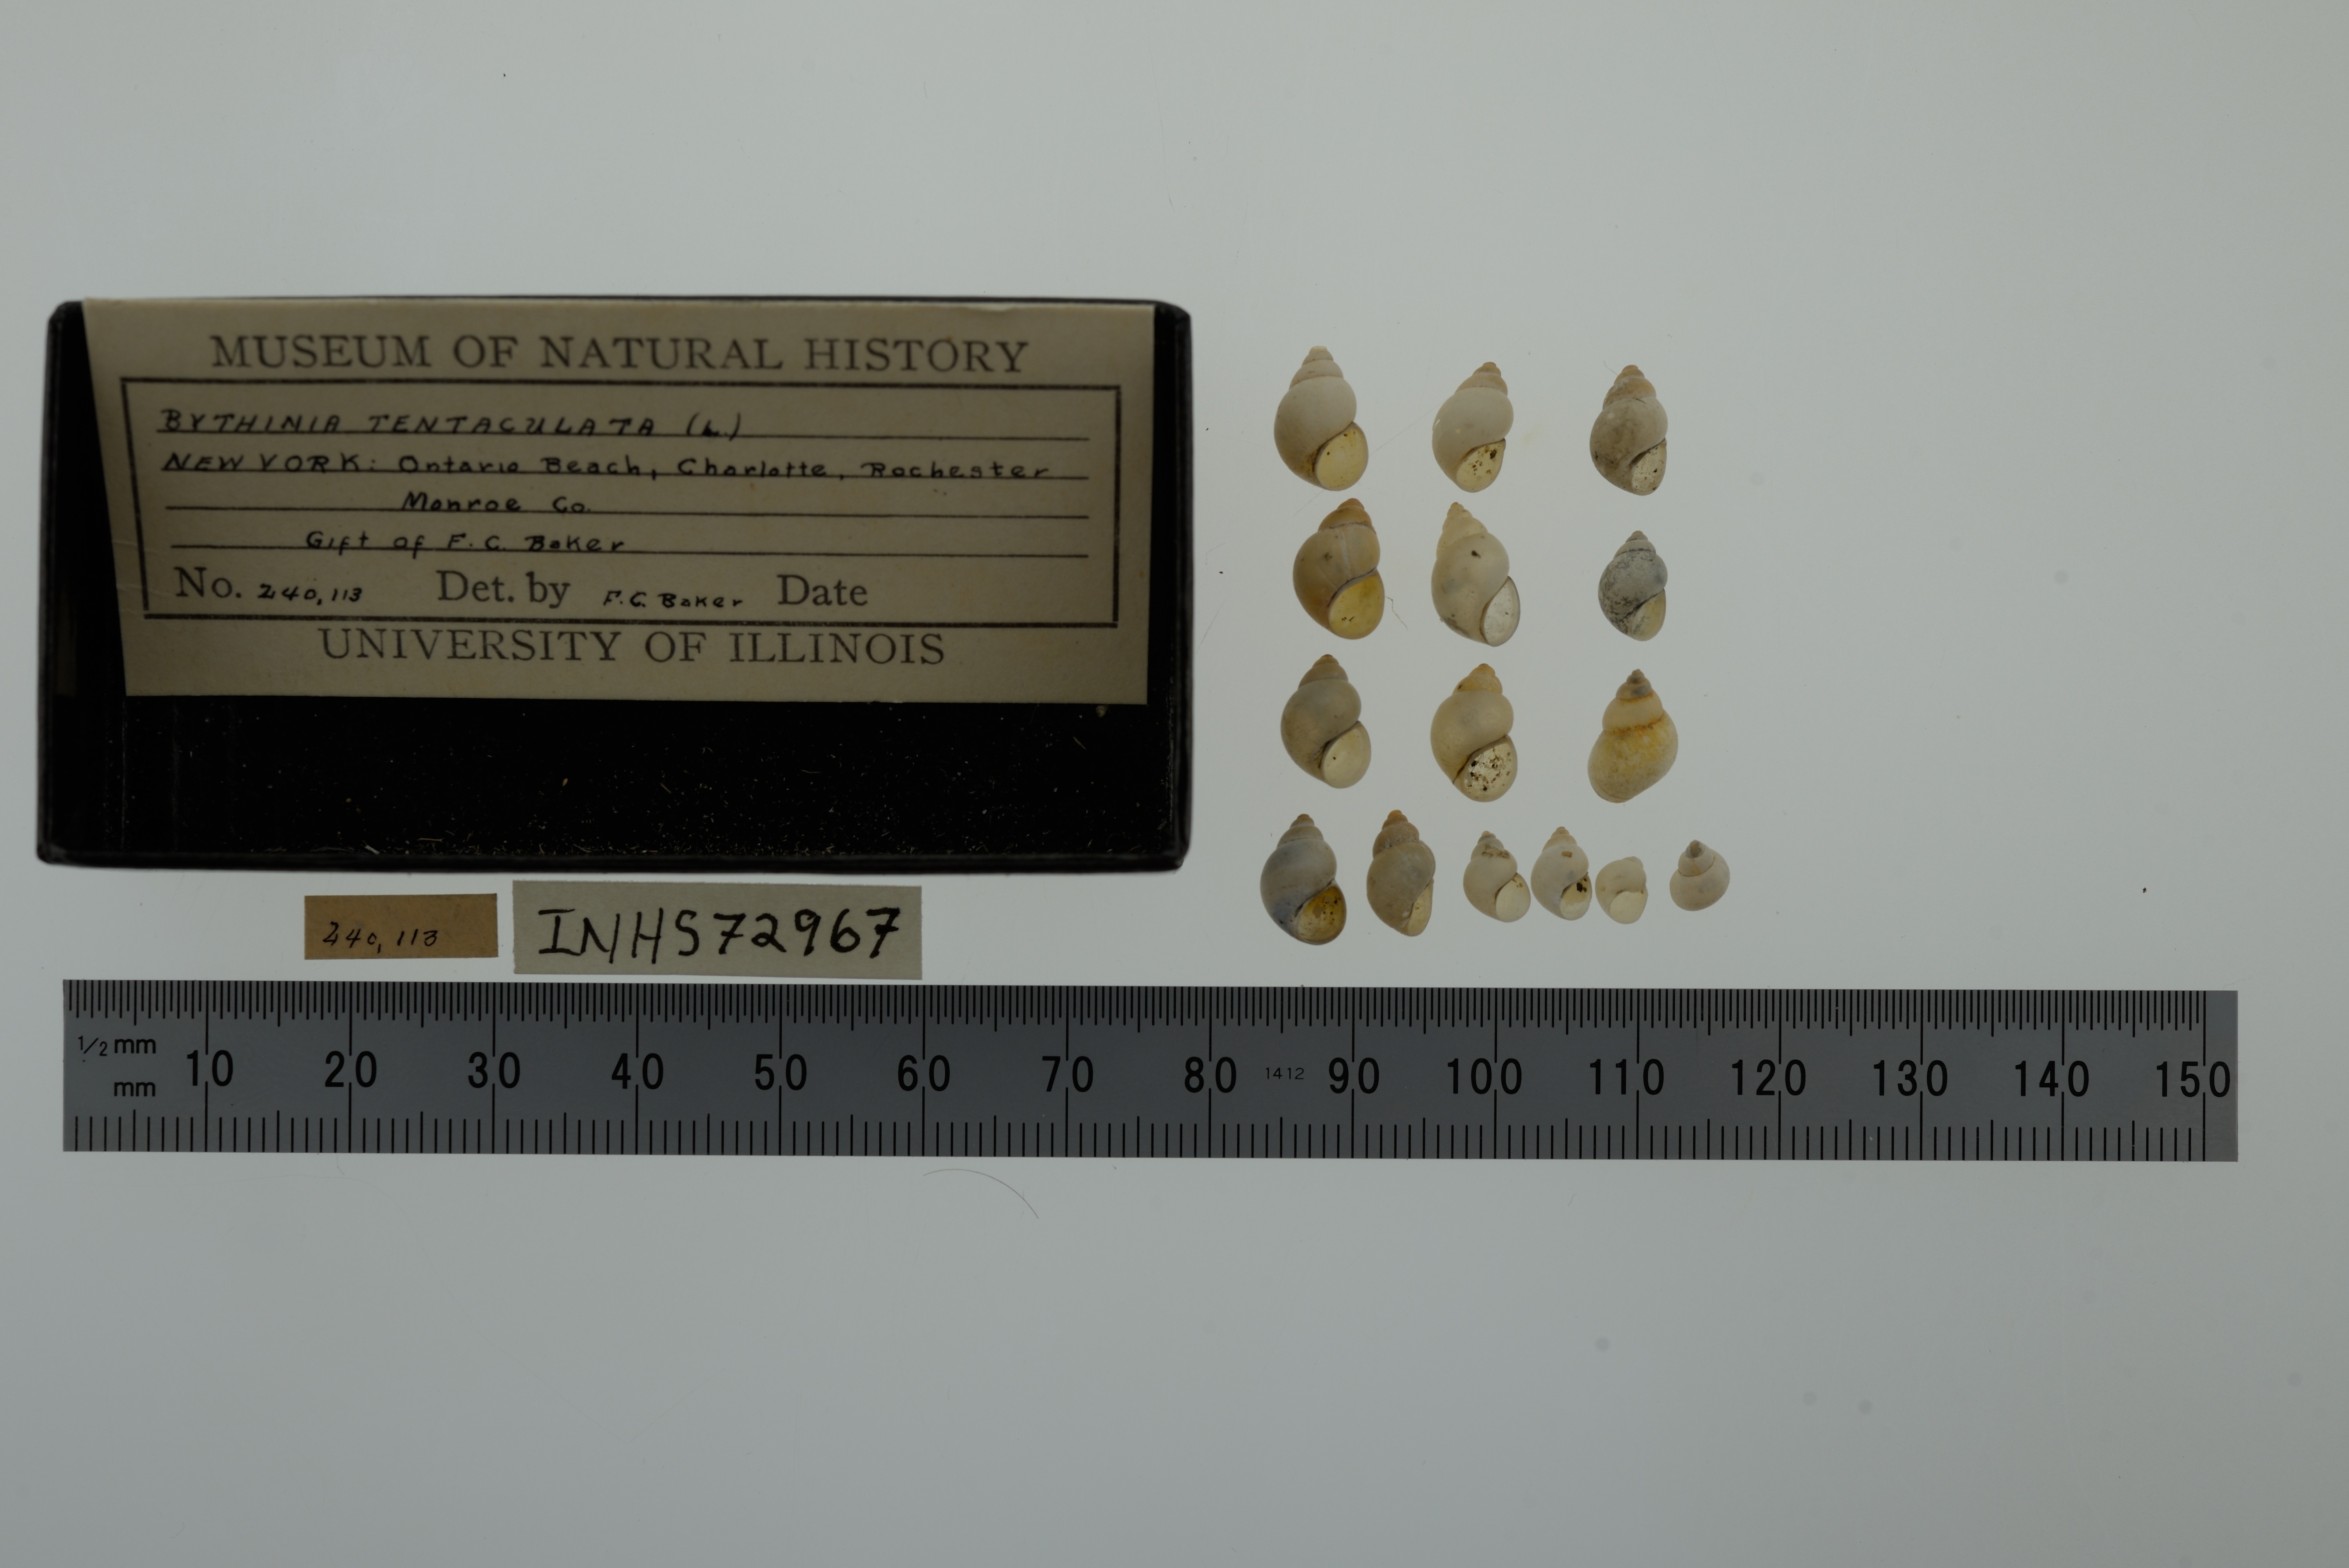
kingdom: Animalia
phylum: Mollusca
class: Gastropoda
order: Littorinimorpha
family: Bithyniidae
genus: Bithynia
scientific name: Bithynia tentaculata
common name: Common bithynia
